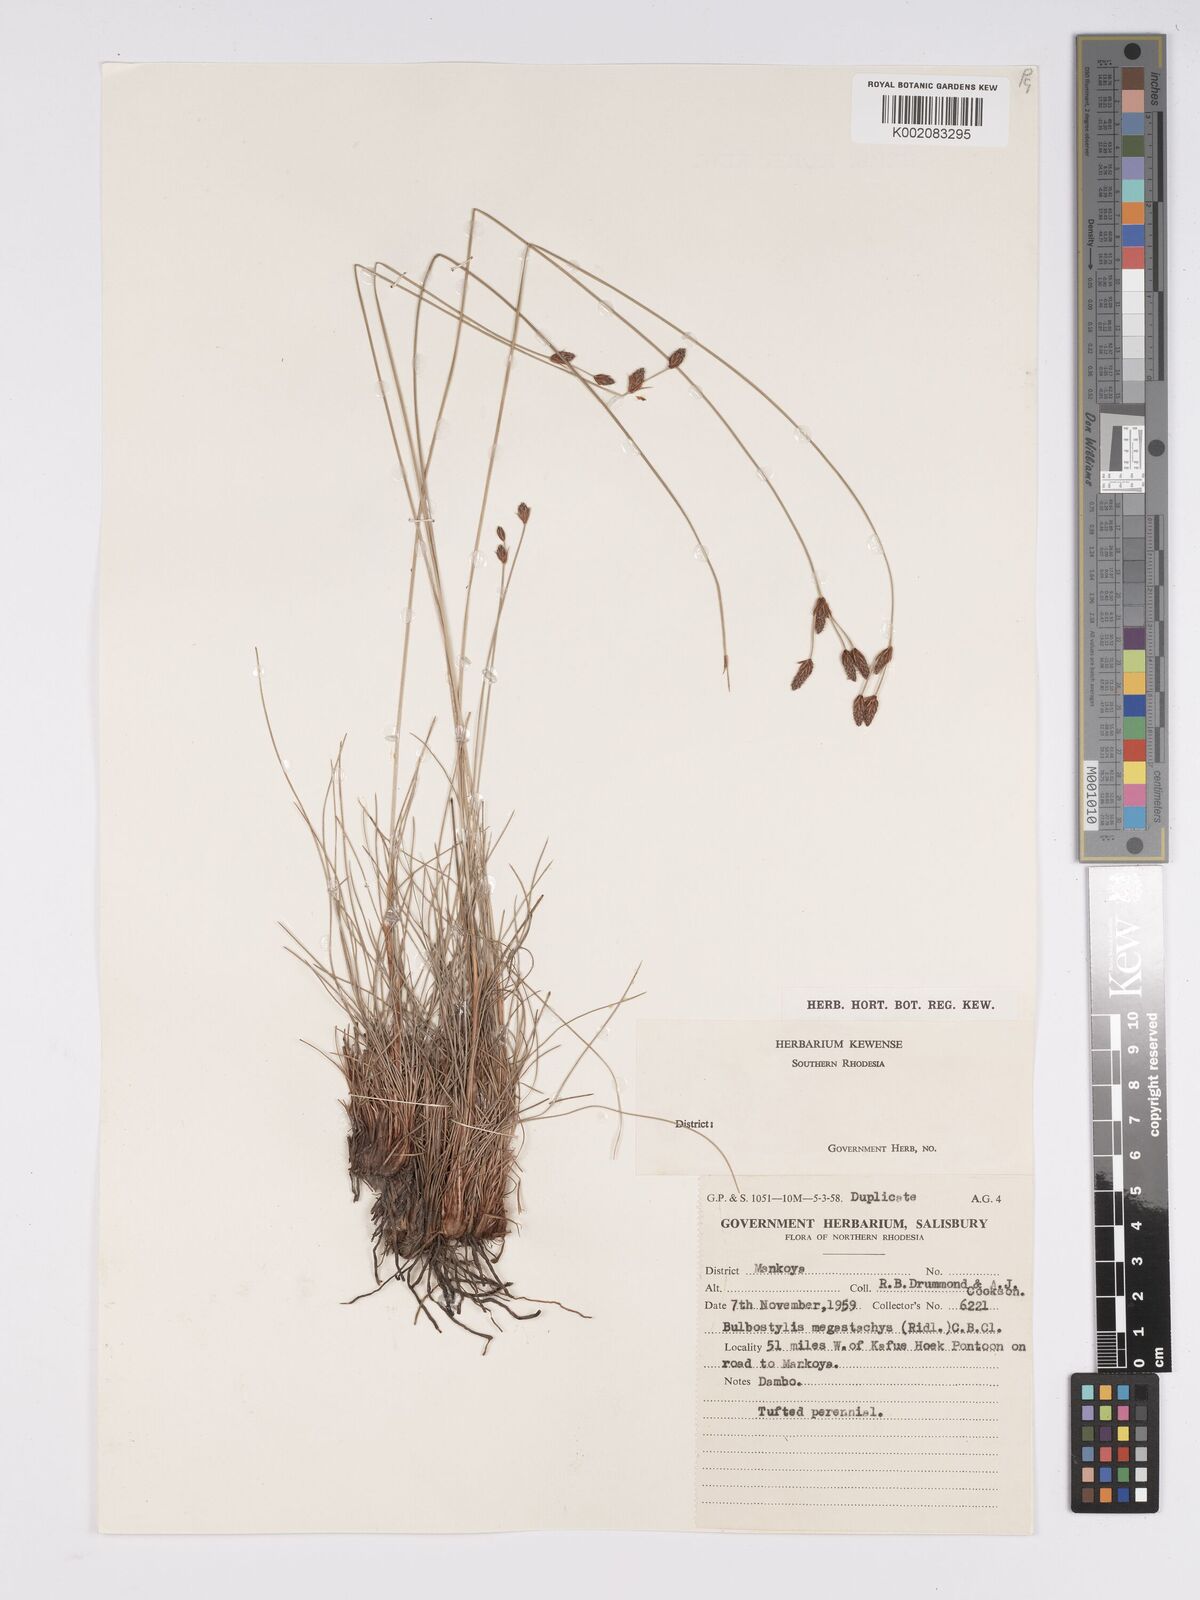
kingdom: Plantae
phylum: Tracheophyta
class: Liliopsida
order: Poales
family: Cyperaceae
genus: Bulbostylis
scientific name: Bulbostylis schoenoides
